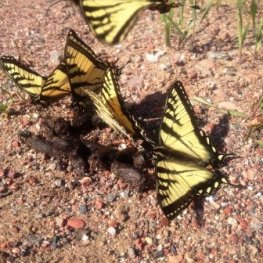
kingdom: Animalia
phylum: Arthropoda
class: Insecta
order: Lepidoptera
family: Papilionidae
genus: Pterourus
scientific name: Pterourus canadensis
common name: Canadian Tiger Swallowtail
